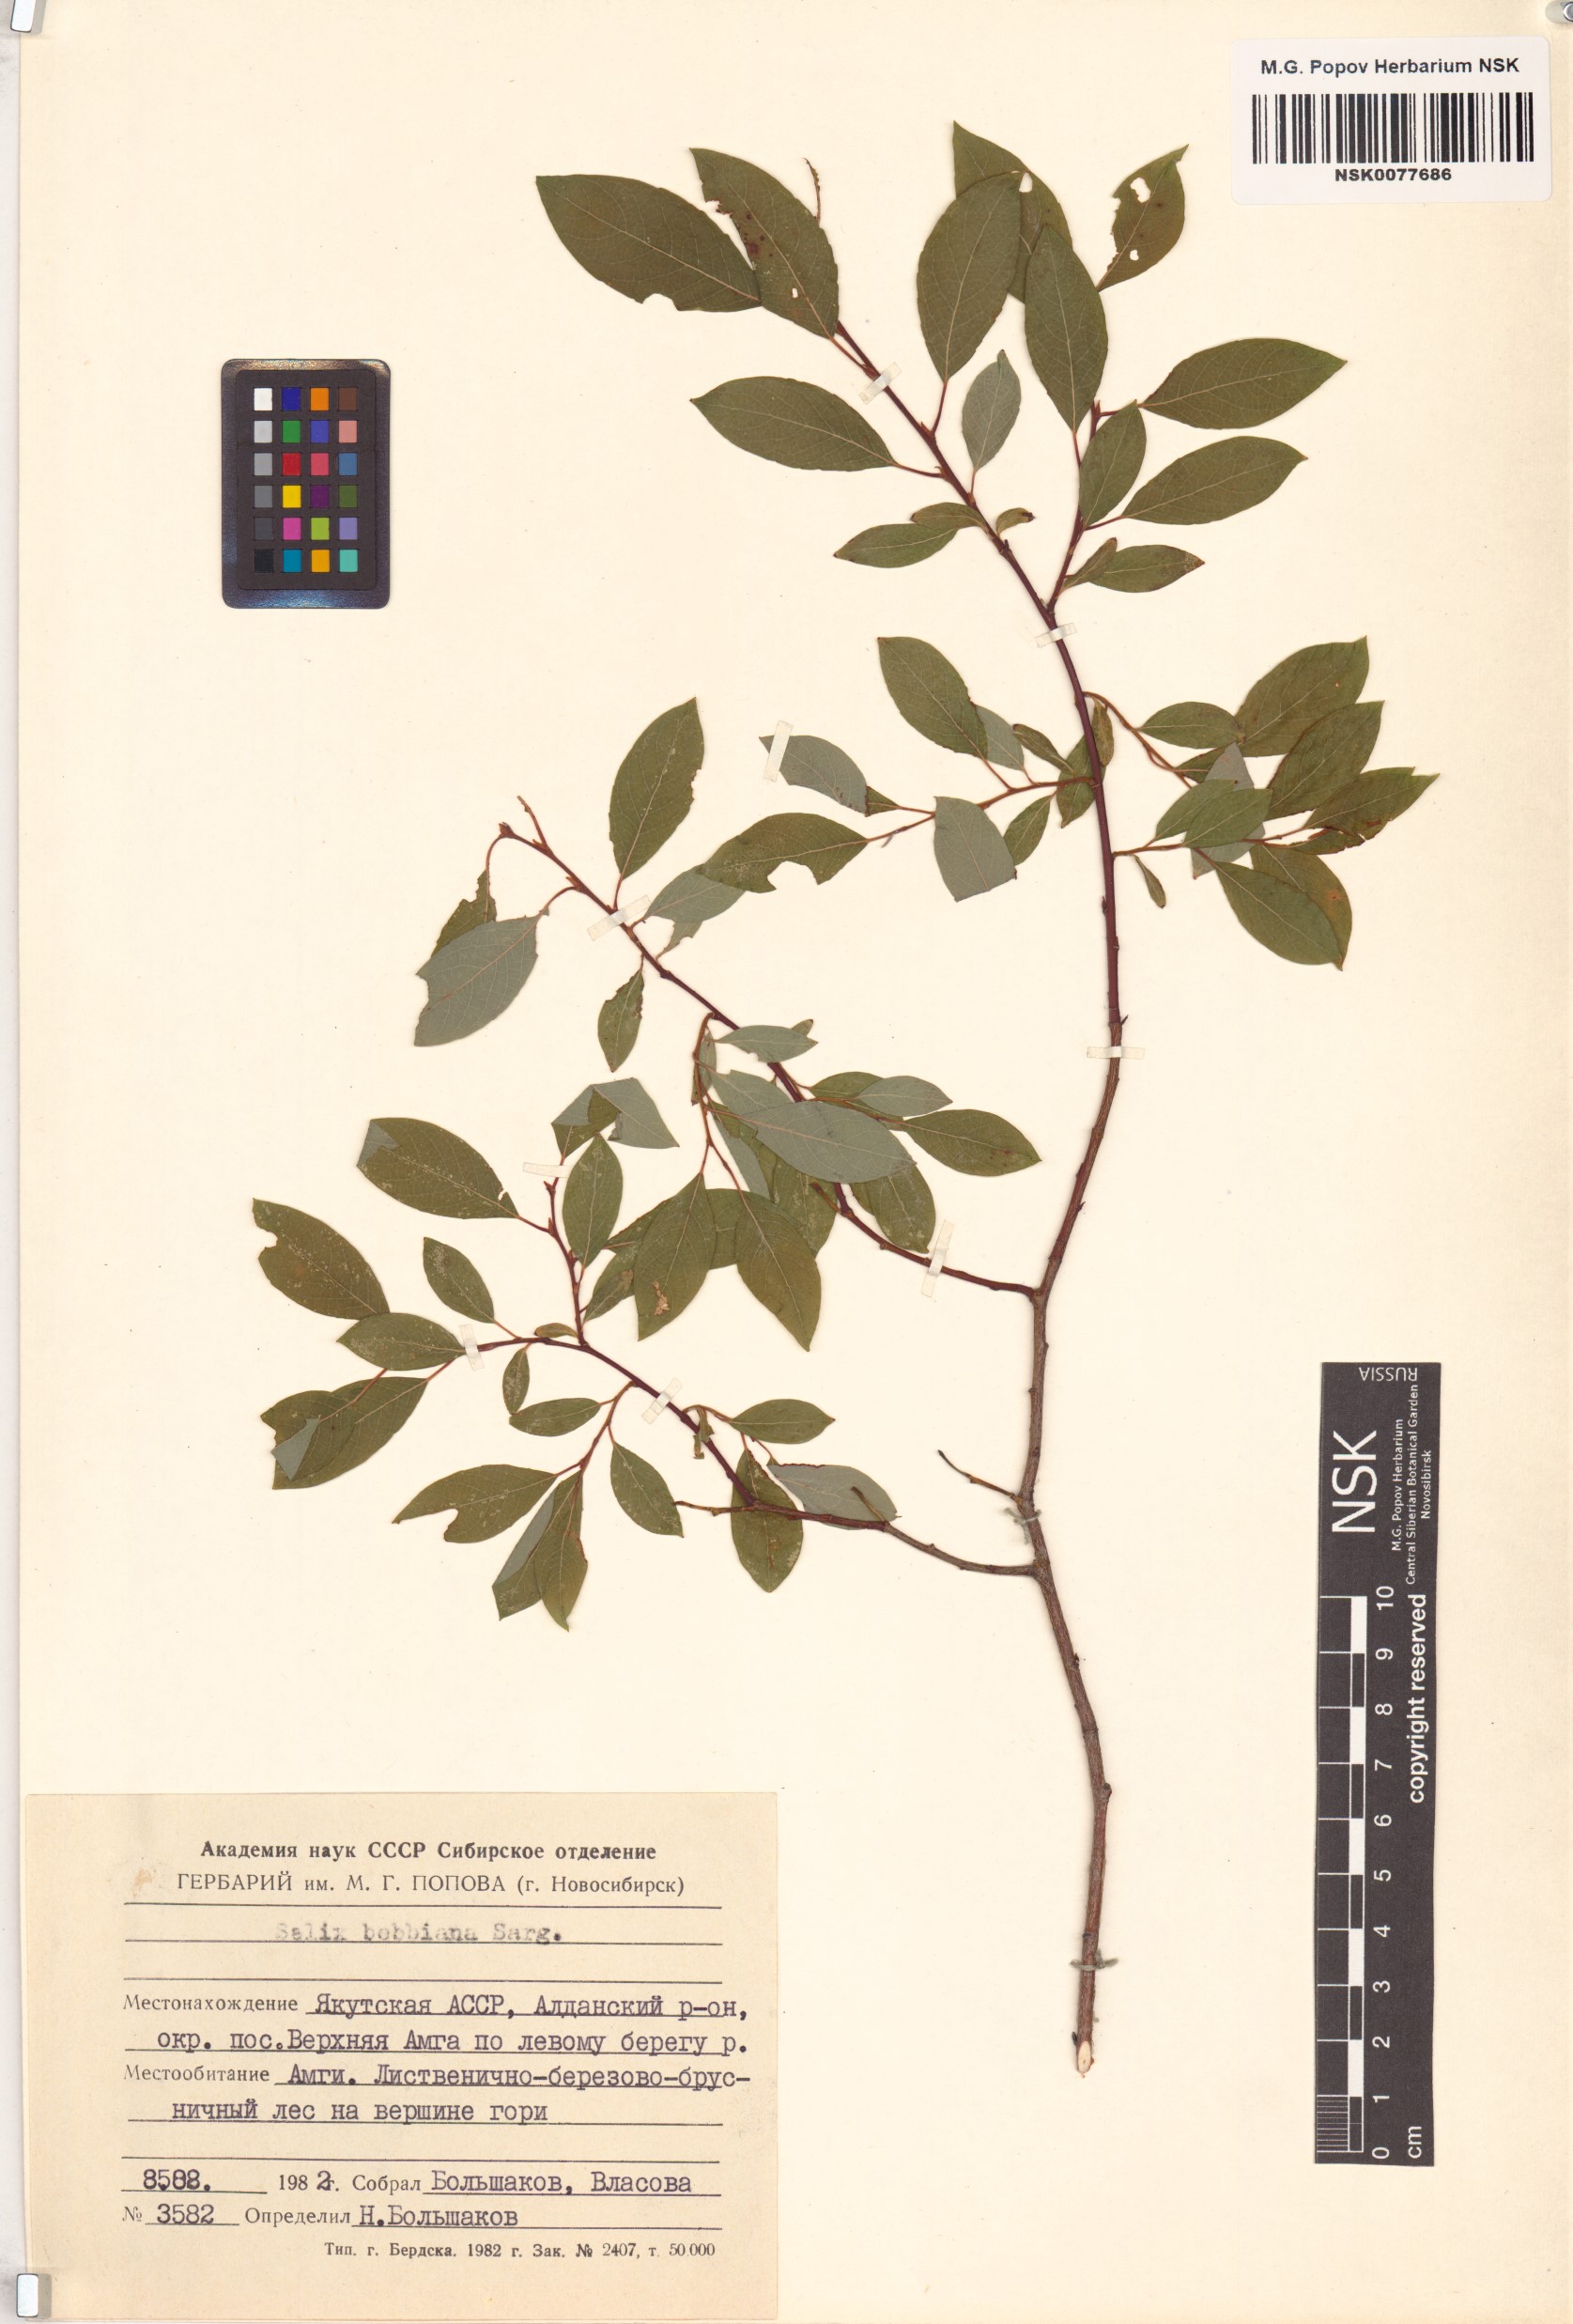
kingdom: Plantae
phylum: Tracheophyta
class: Magnoliopsida
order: Malpighiales
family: Salicaceae
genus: Salix
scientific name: Salix bebbiana
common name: Bebb's willow
